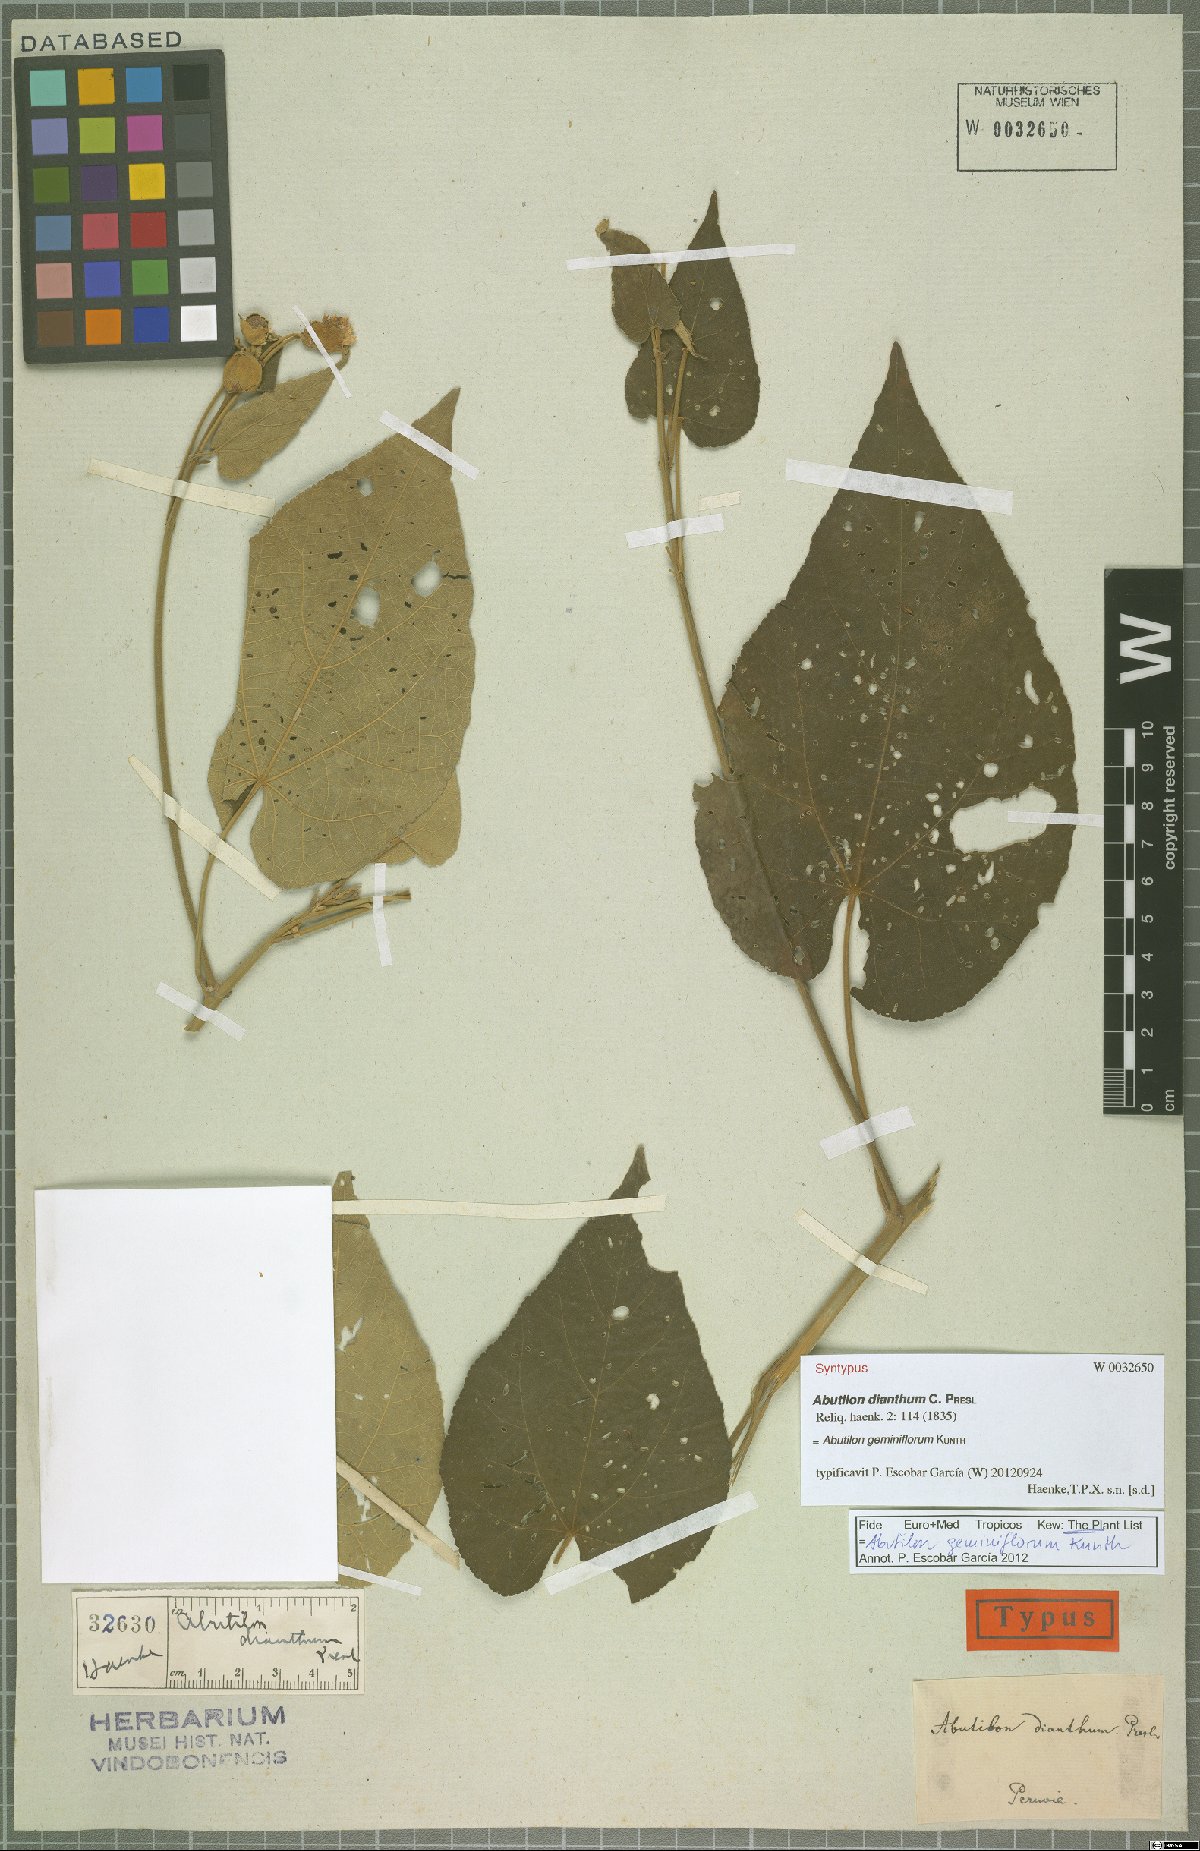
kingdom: Plantae
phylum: Tracheophyta
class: Magnoliopsida
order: Malvales
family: Malvaceae
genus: Callianthe
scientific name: Callianthe geminiflora
